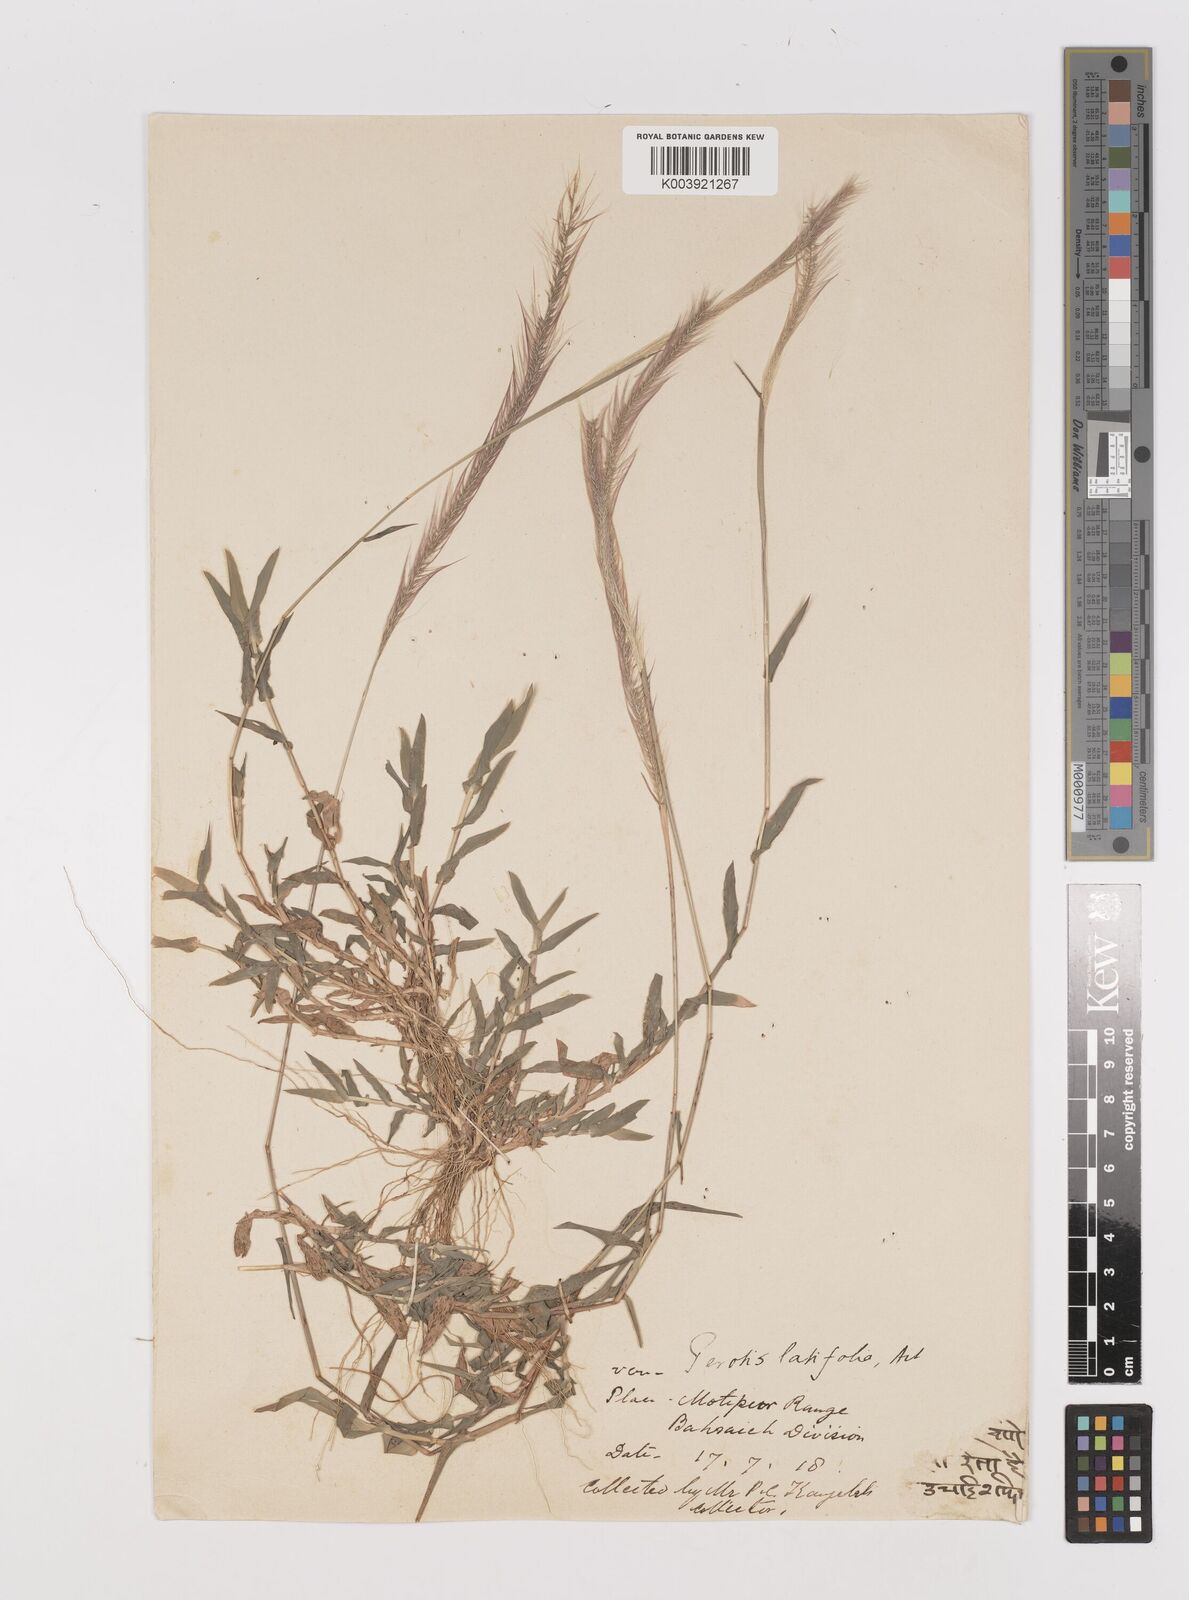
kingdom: Plantae
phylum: Tracheophyta
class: Liliopsida
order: Poales
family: Poaceae
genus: Perotis
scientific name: Perotis hordeiformis
